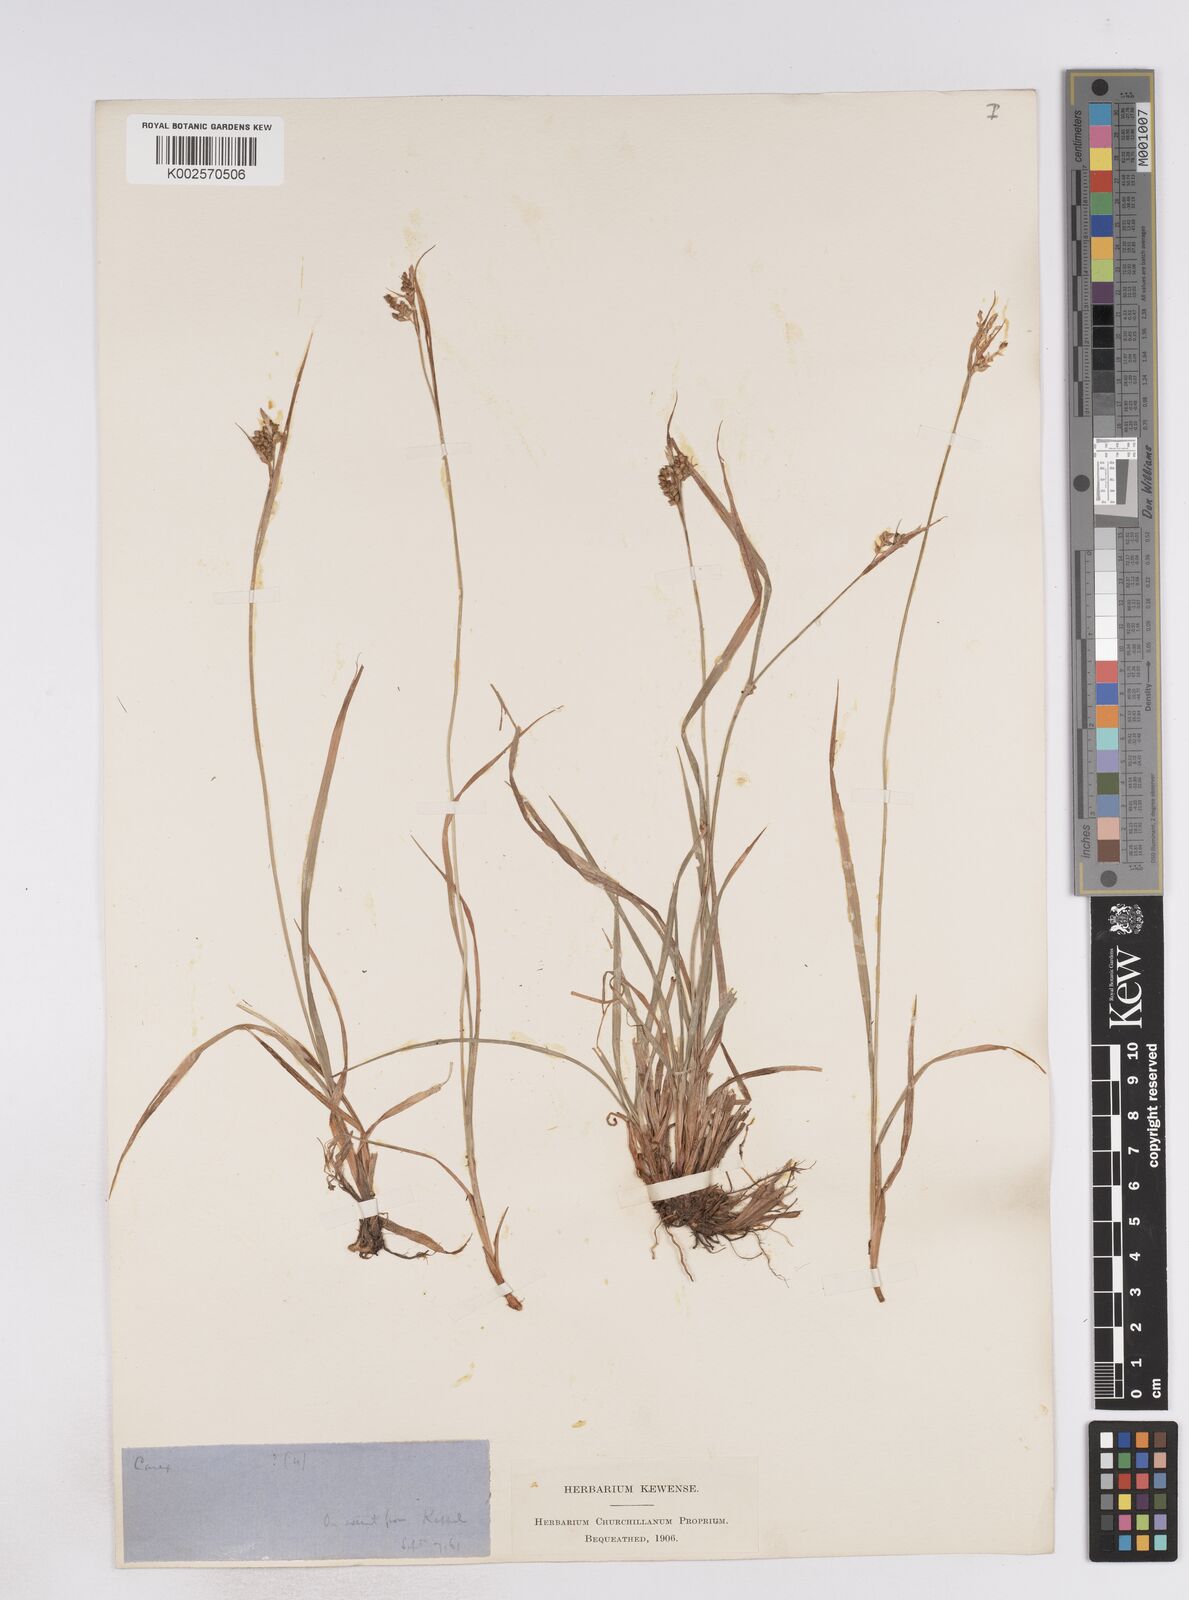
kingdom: Plantae
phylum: Tracheophyta
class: Liliopsida
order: Poales
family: Cyperaceae
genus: Carex
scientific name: Carex pallescens
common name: Pale sedge
